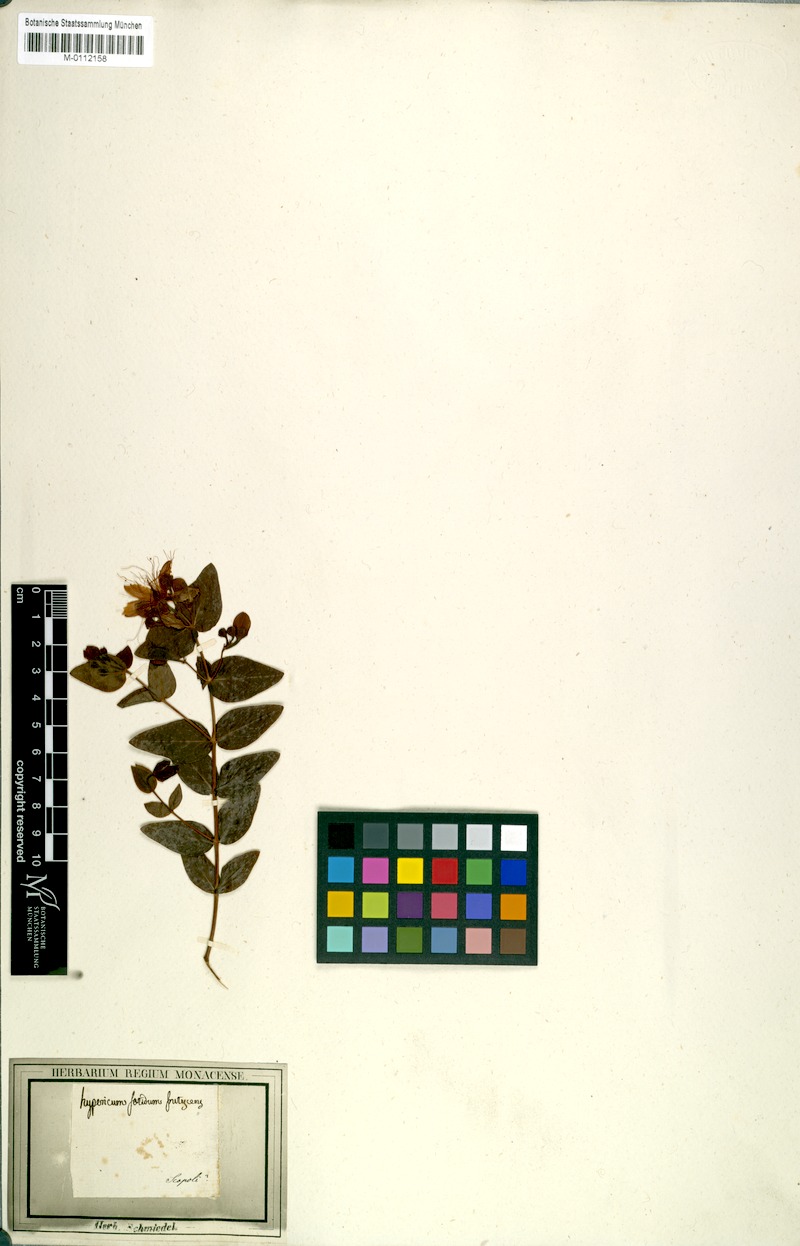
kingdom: Plantae
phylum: Tracheophyta
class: Magnoliopsida
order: Malpighiales
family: Hypericaceae
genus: Hypericum
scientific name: Hypericum hircinum
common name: Stinking tutsan
